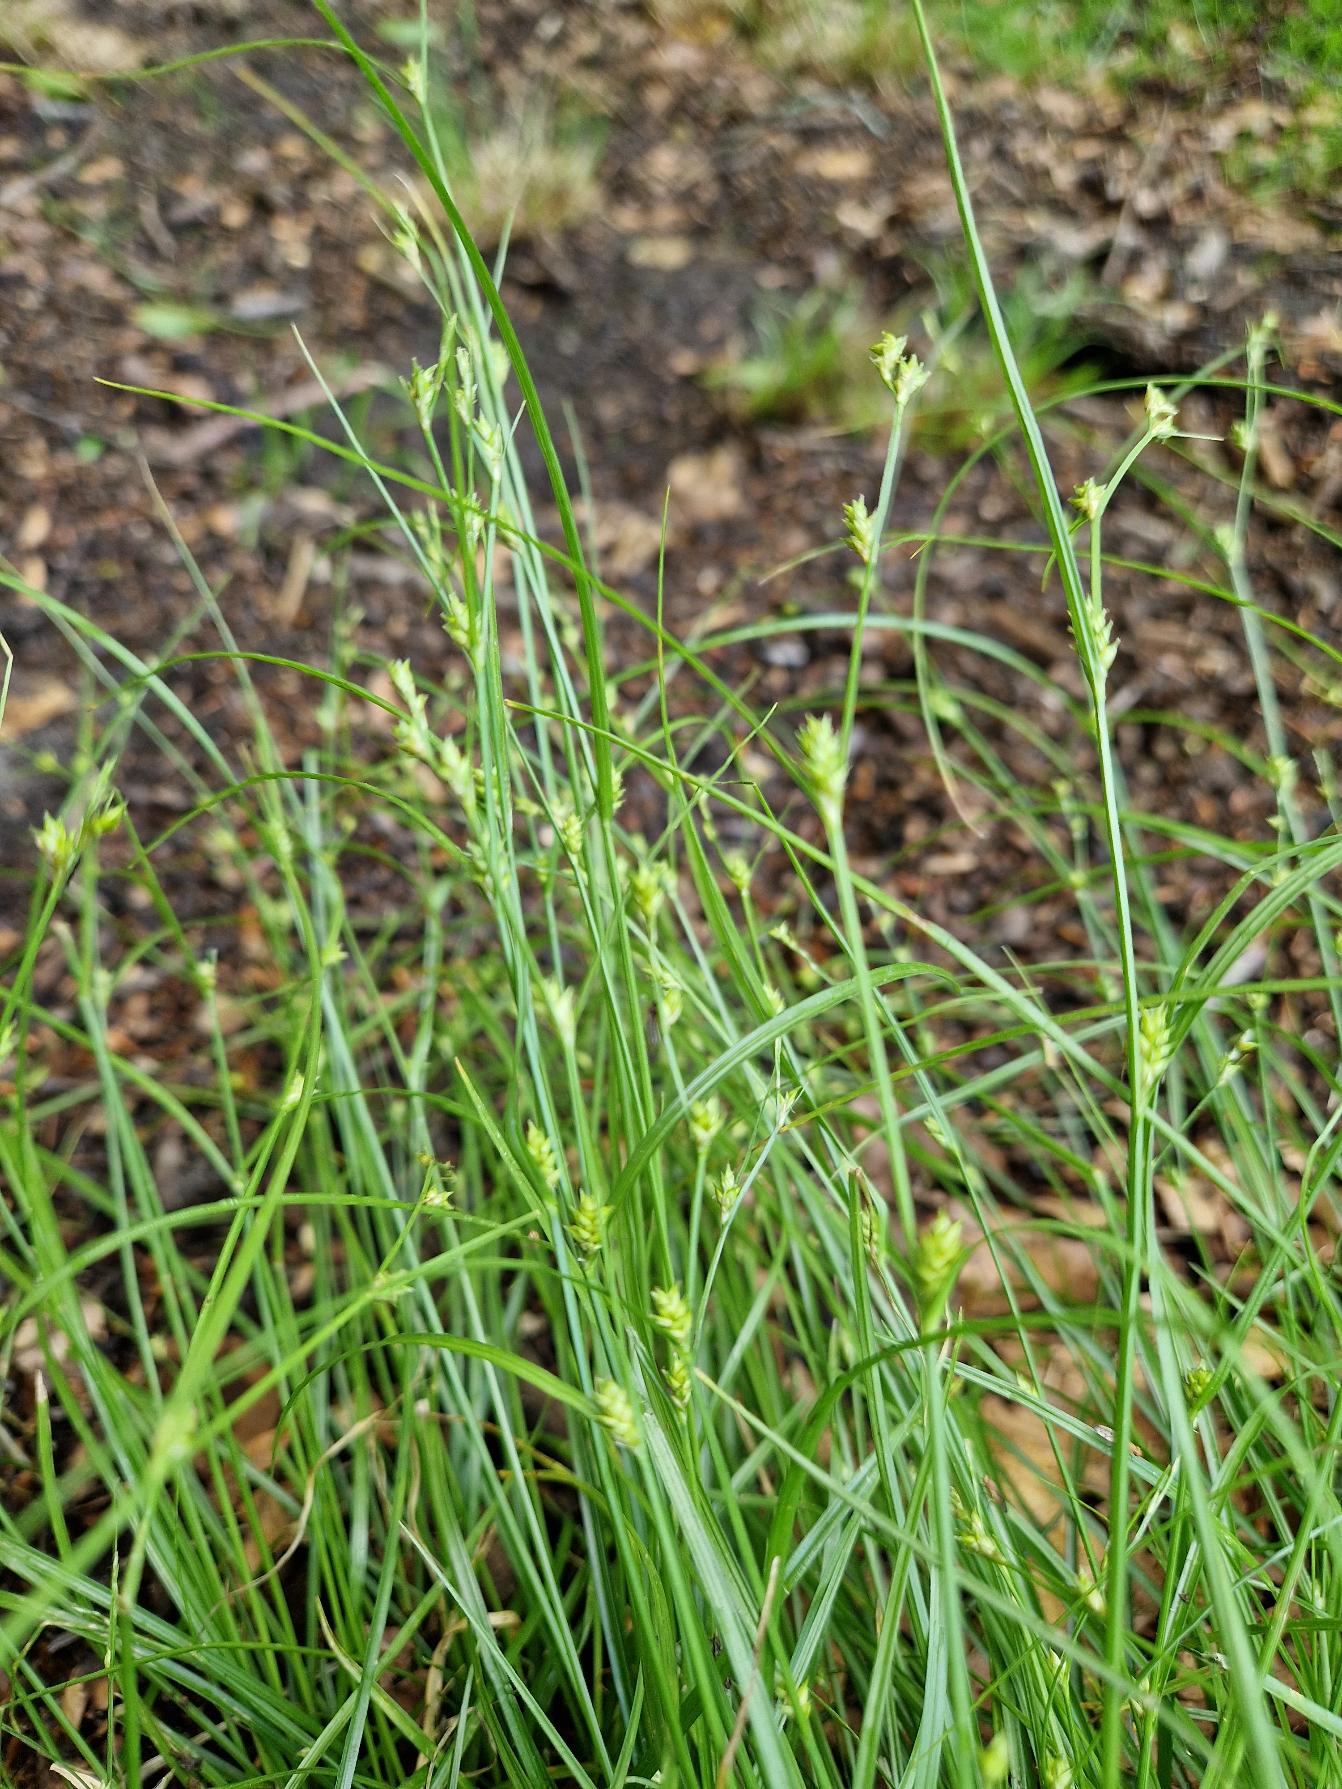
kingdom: Plantae
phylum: Tracheophyta
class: Liliopsida
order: Poales
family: Cyperaceae
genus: Carex
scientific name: Carex remota
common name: Akselblomstret star
